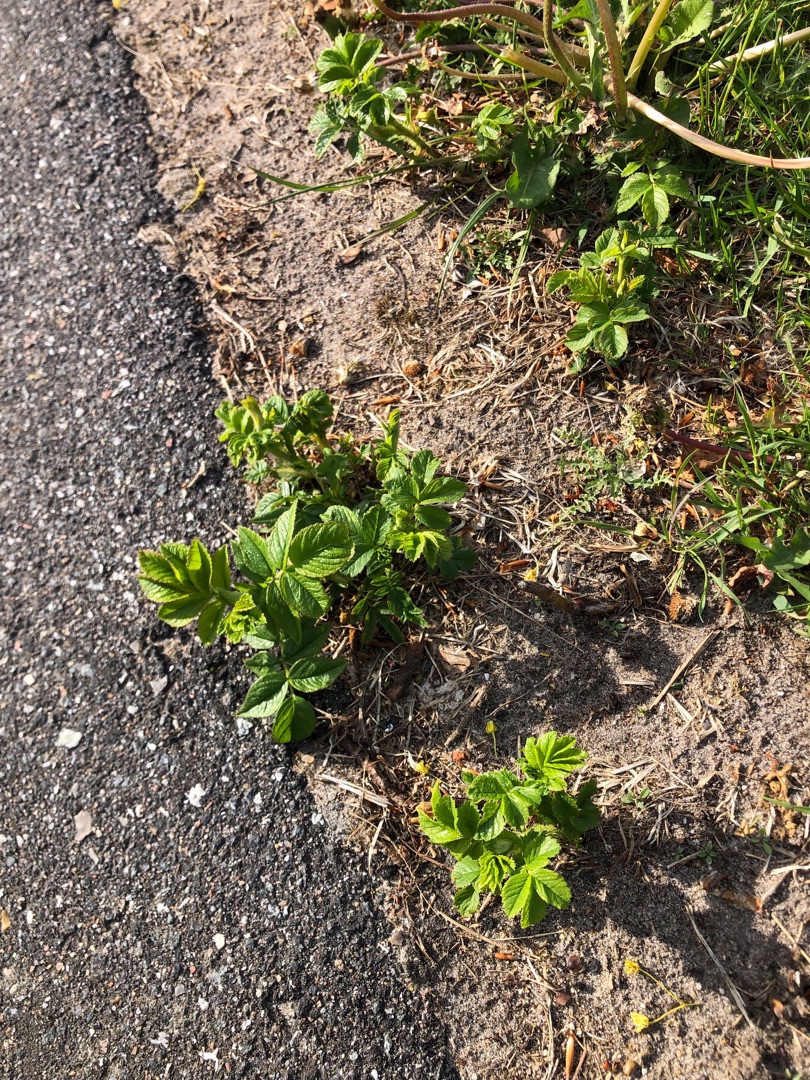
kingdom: Plantae
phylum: Tracheophyta
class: Magnoliopsida
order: Rosales
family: Rosaceae
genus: Rosa
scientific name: Rosa rugosa
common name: Rynket rose
